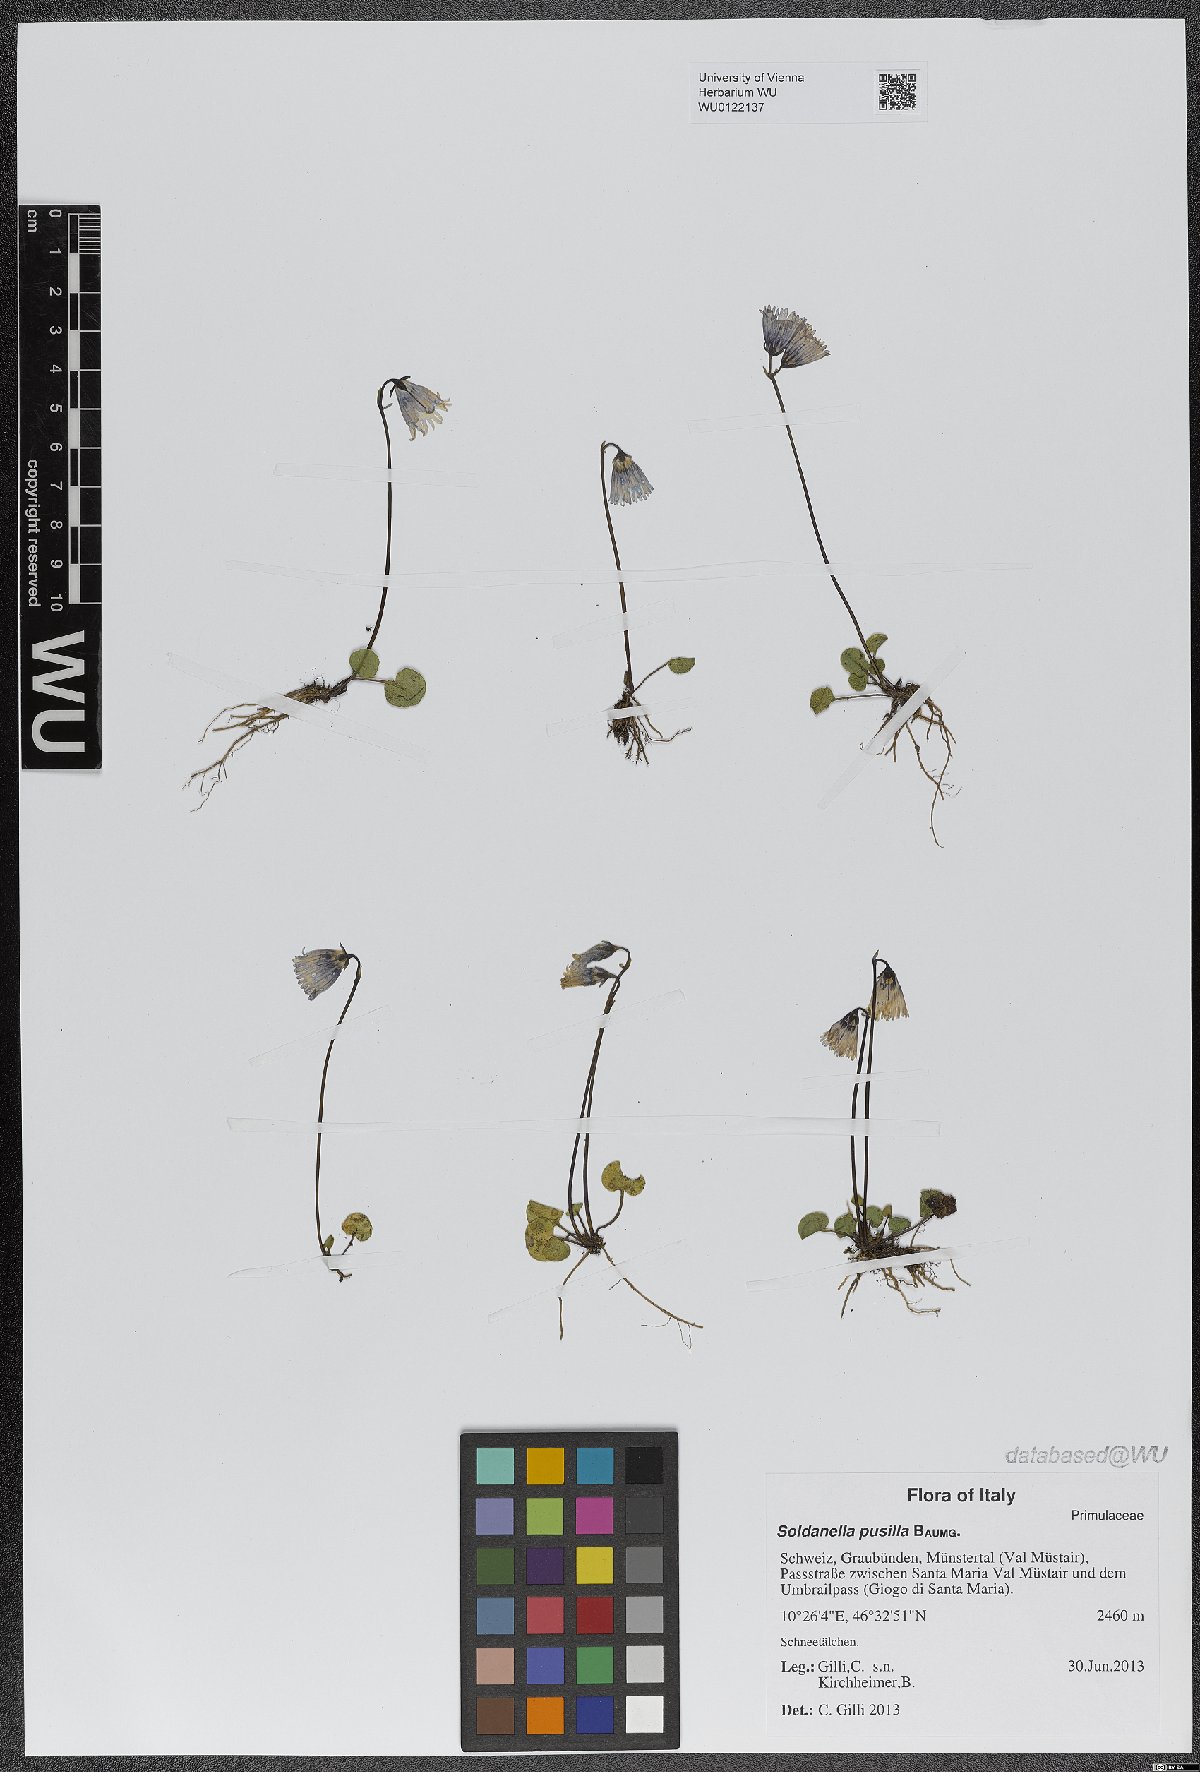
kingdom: Plantae
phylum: Tracheophyta
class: Magnoliopsida
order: Ericales
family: Primulaceae
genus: Soldanella
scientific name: Soldanella pusilla
